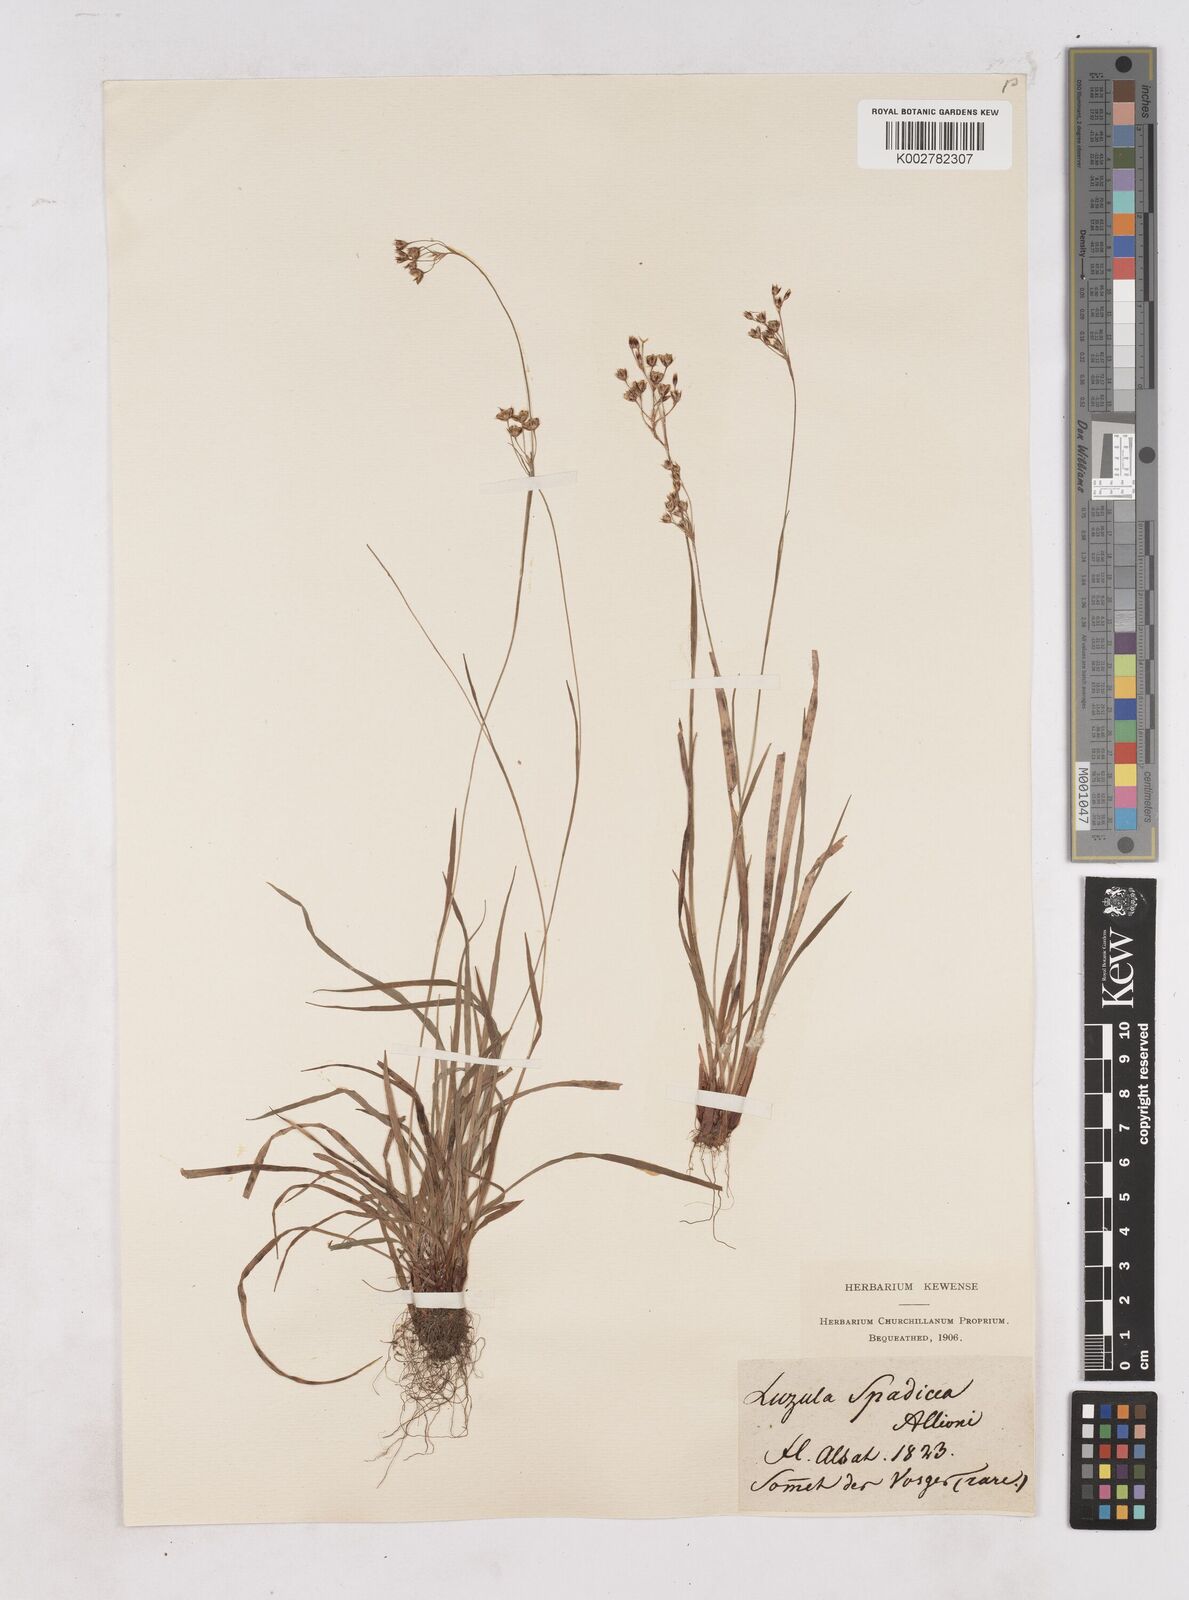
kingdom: Plantae
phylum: Tracheophyta
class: Liliopsida
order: Poales
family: Juncaceae
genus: Luzula
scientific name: Luzula alpinopilosa
